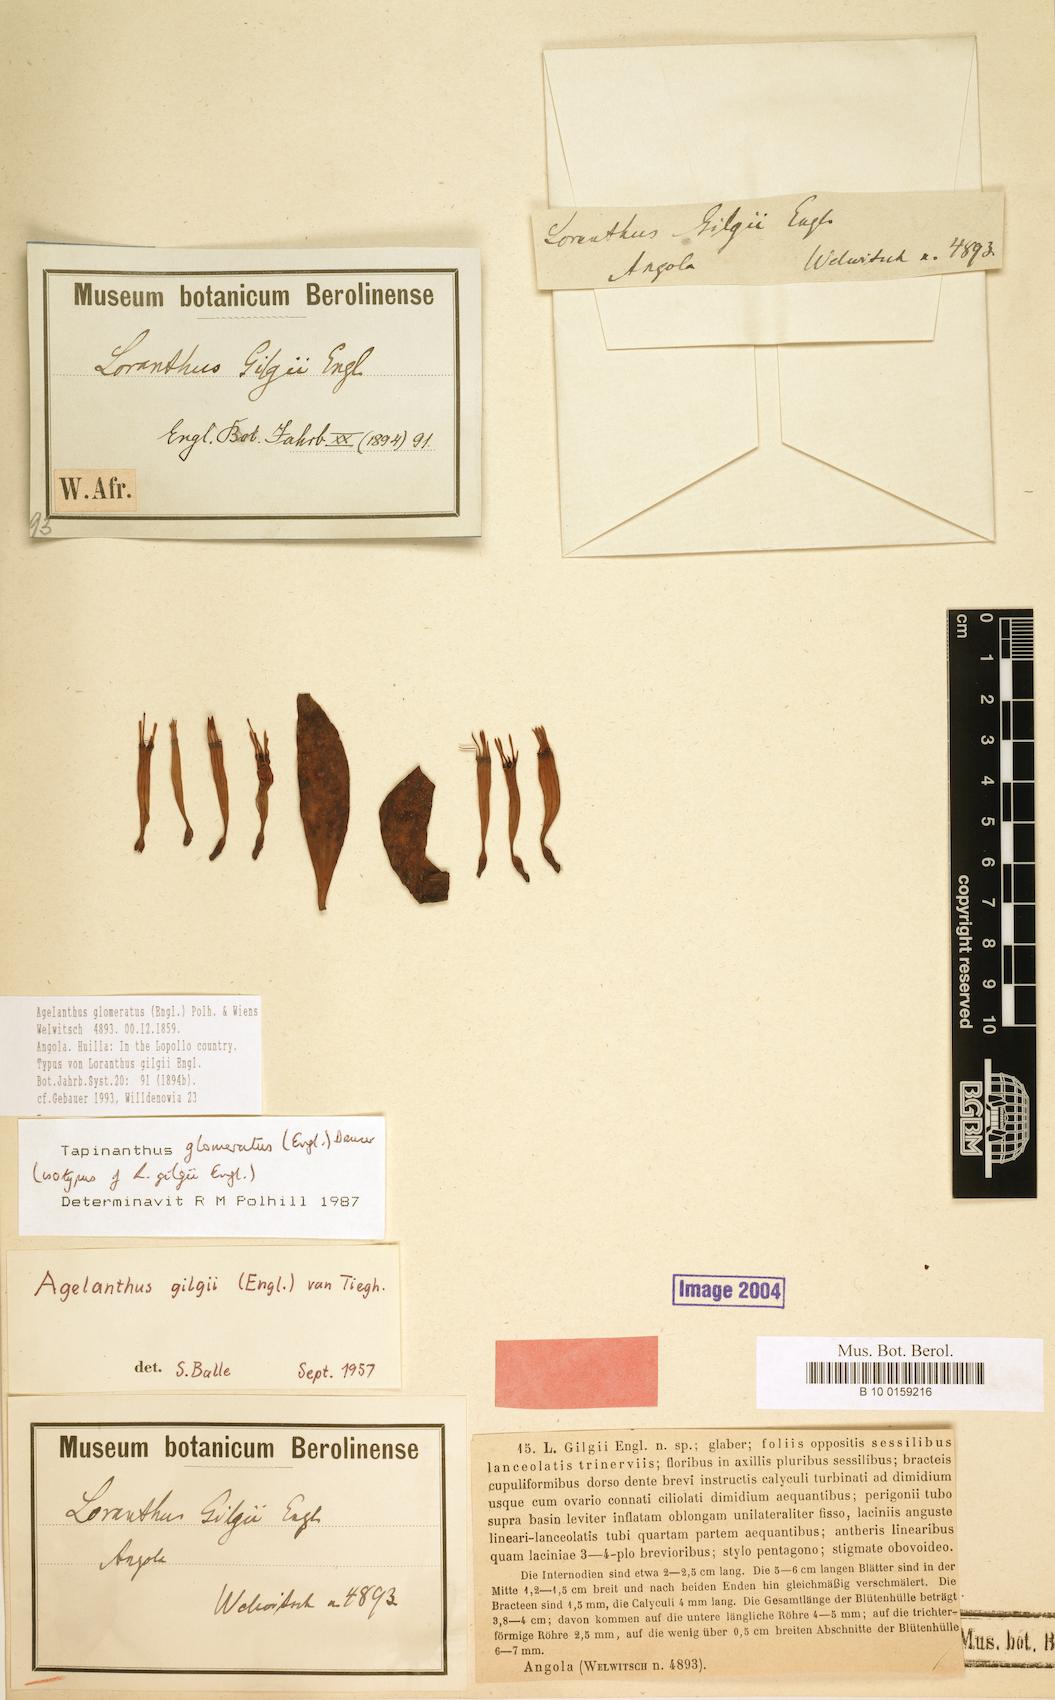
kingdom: Plantae
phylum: Tracheophyta
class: Magnoliopsida
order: Santalales
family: Loranthaceae
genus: Agelanthus
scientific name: Agelanthus glomeratus
